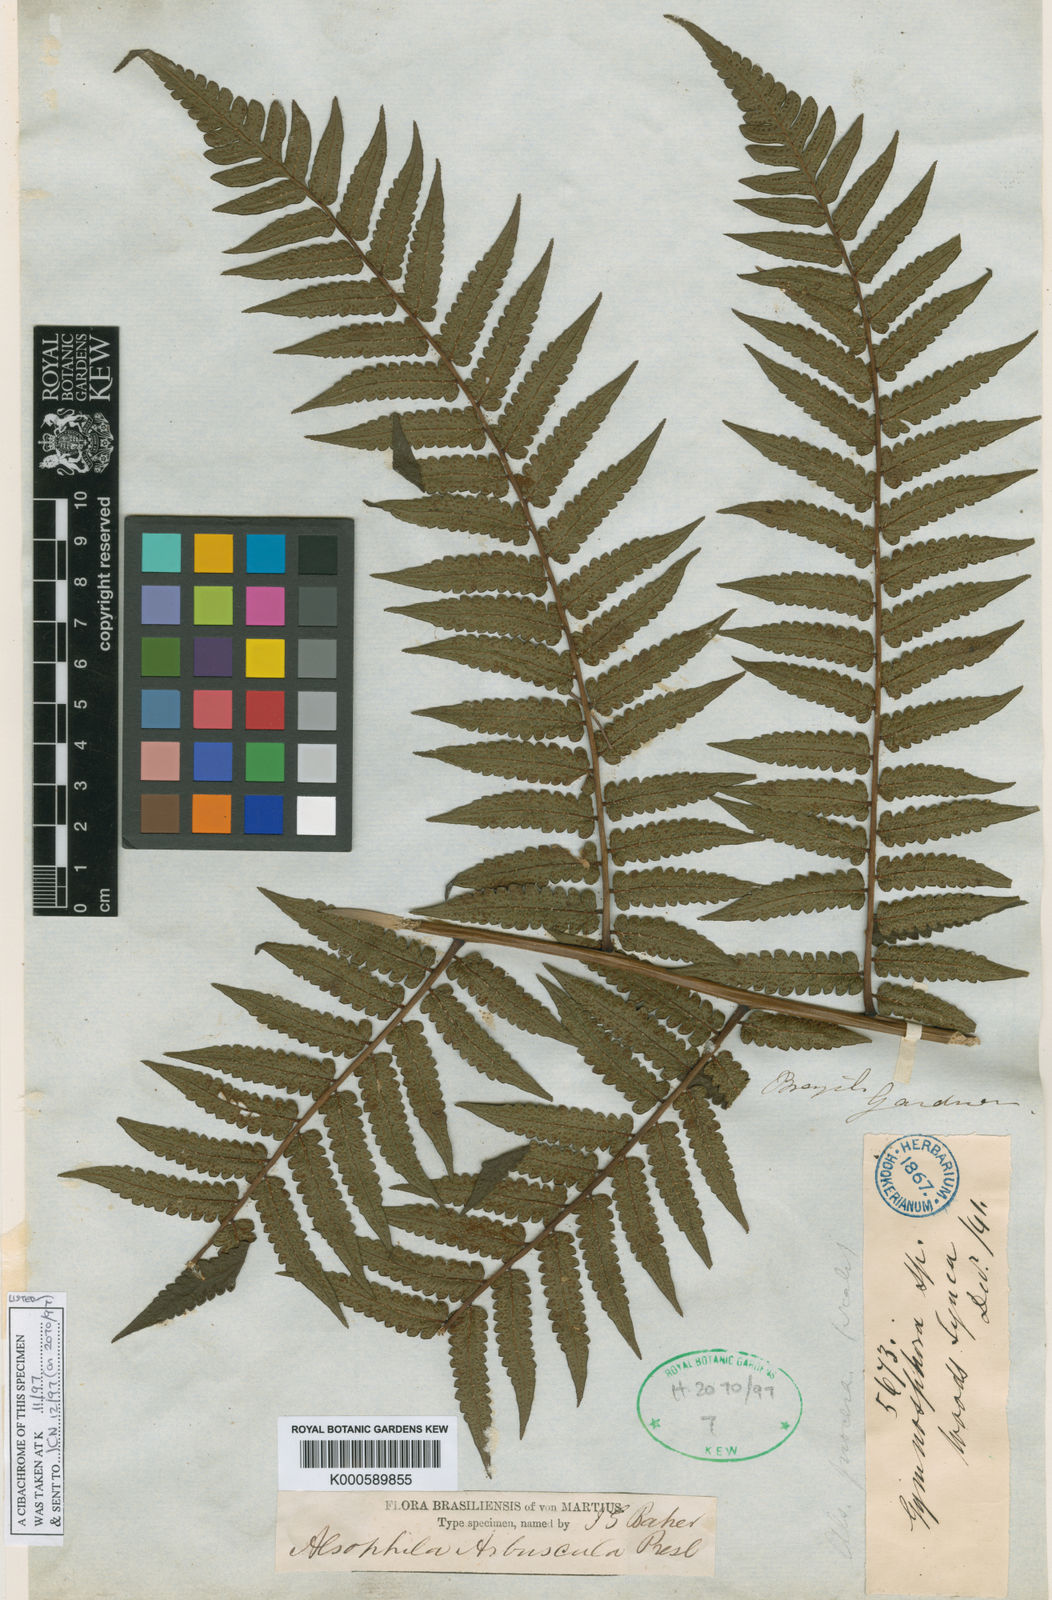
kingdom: Plantae
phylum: Tracheophyta
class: Polypodiopsida
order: Cyatheales
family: Cyatheaceae
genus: Cyathea
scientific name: Cyathea
